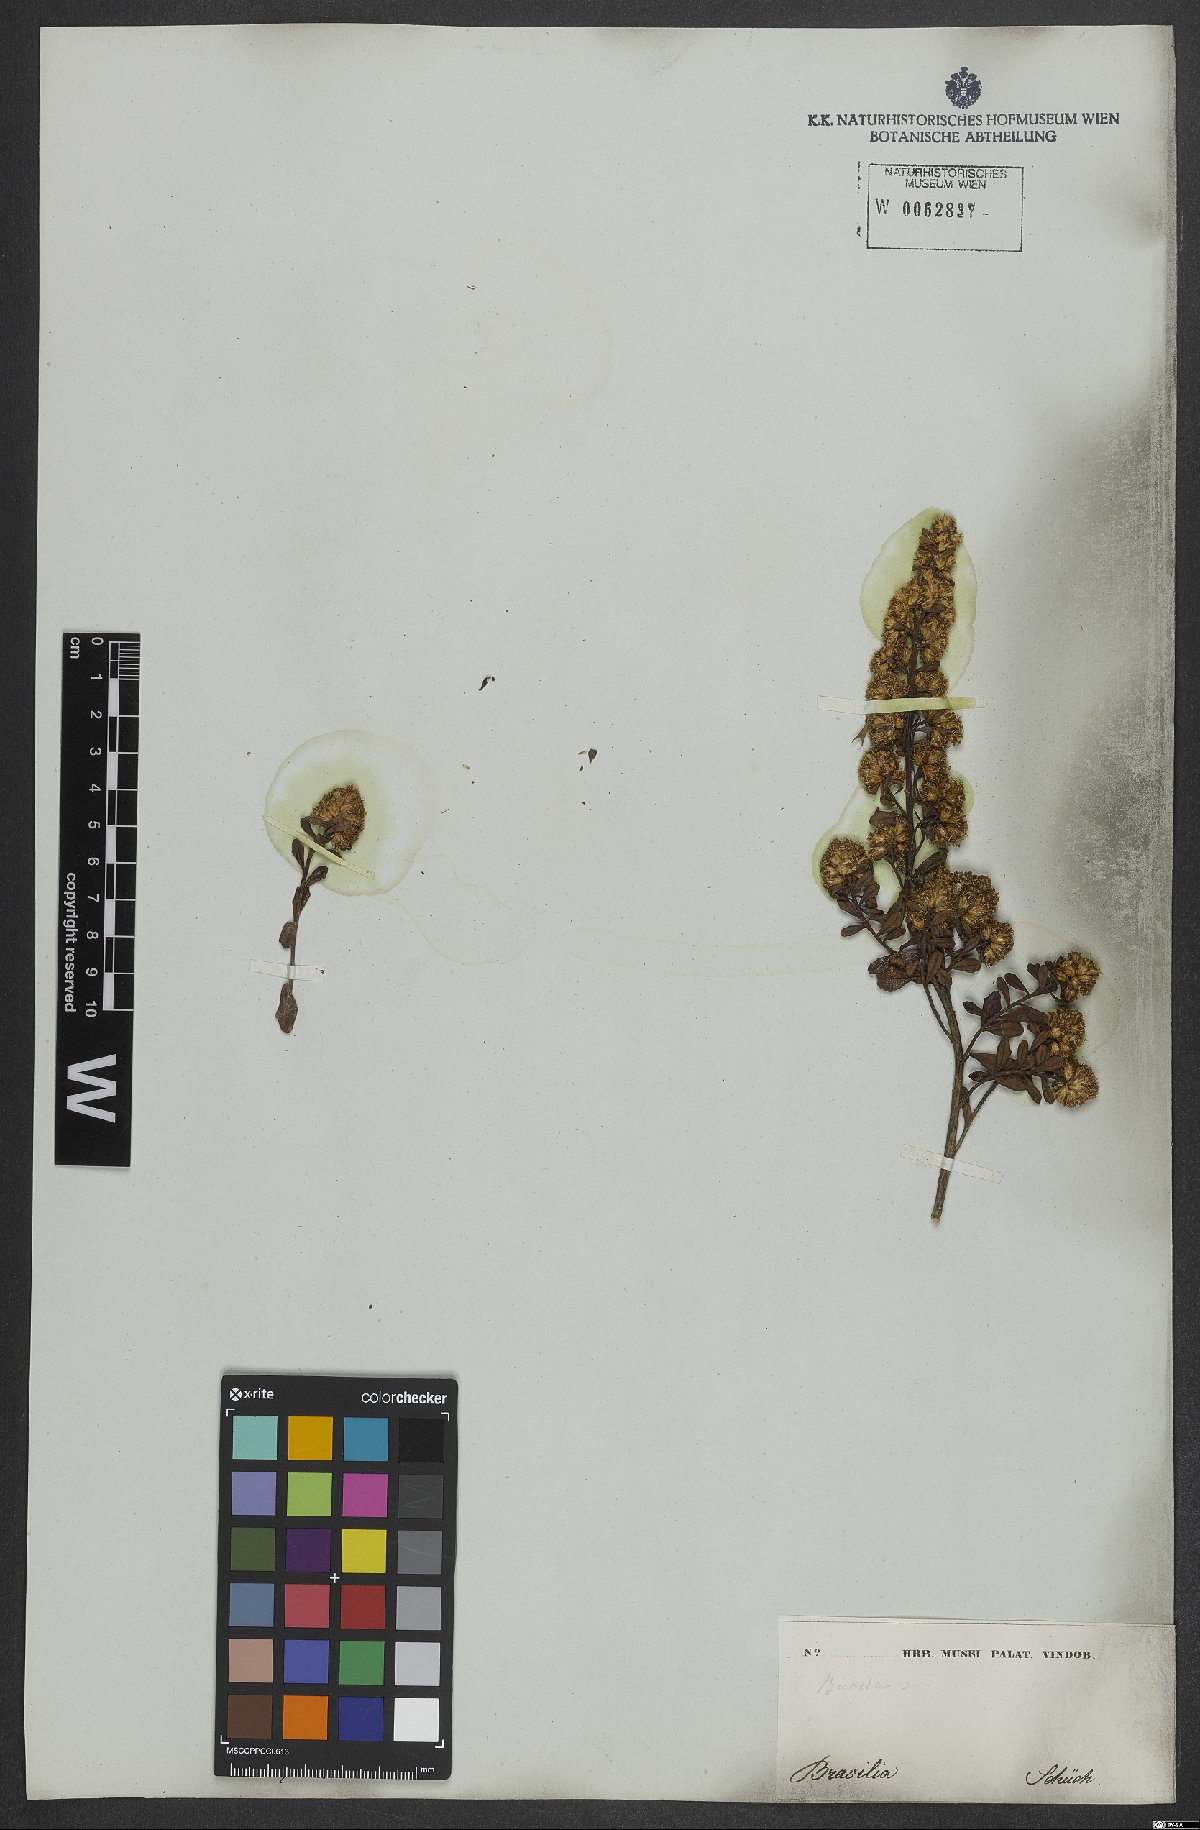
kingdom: Plantae
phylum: Tracheophyta
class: Magnoliopsida
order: Asterales
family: Asteraceae
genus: Baccharis
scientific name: Baccharis
